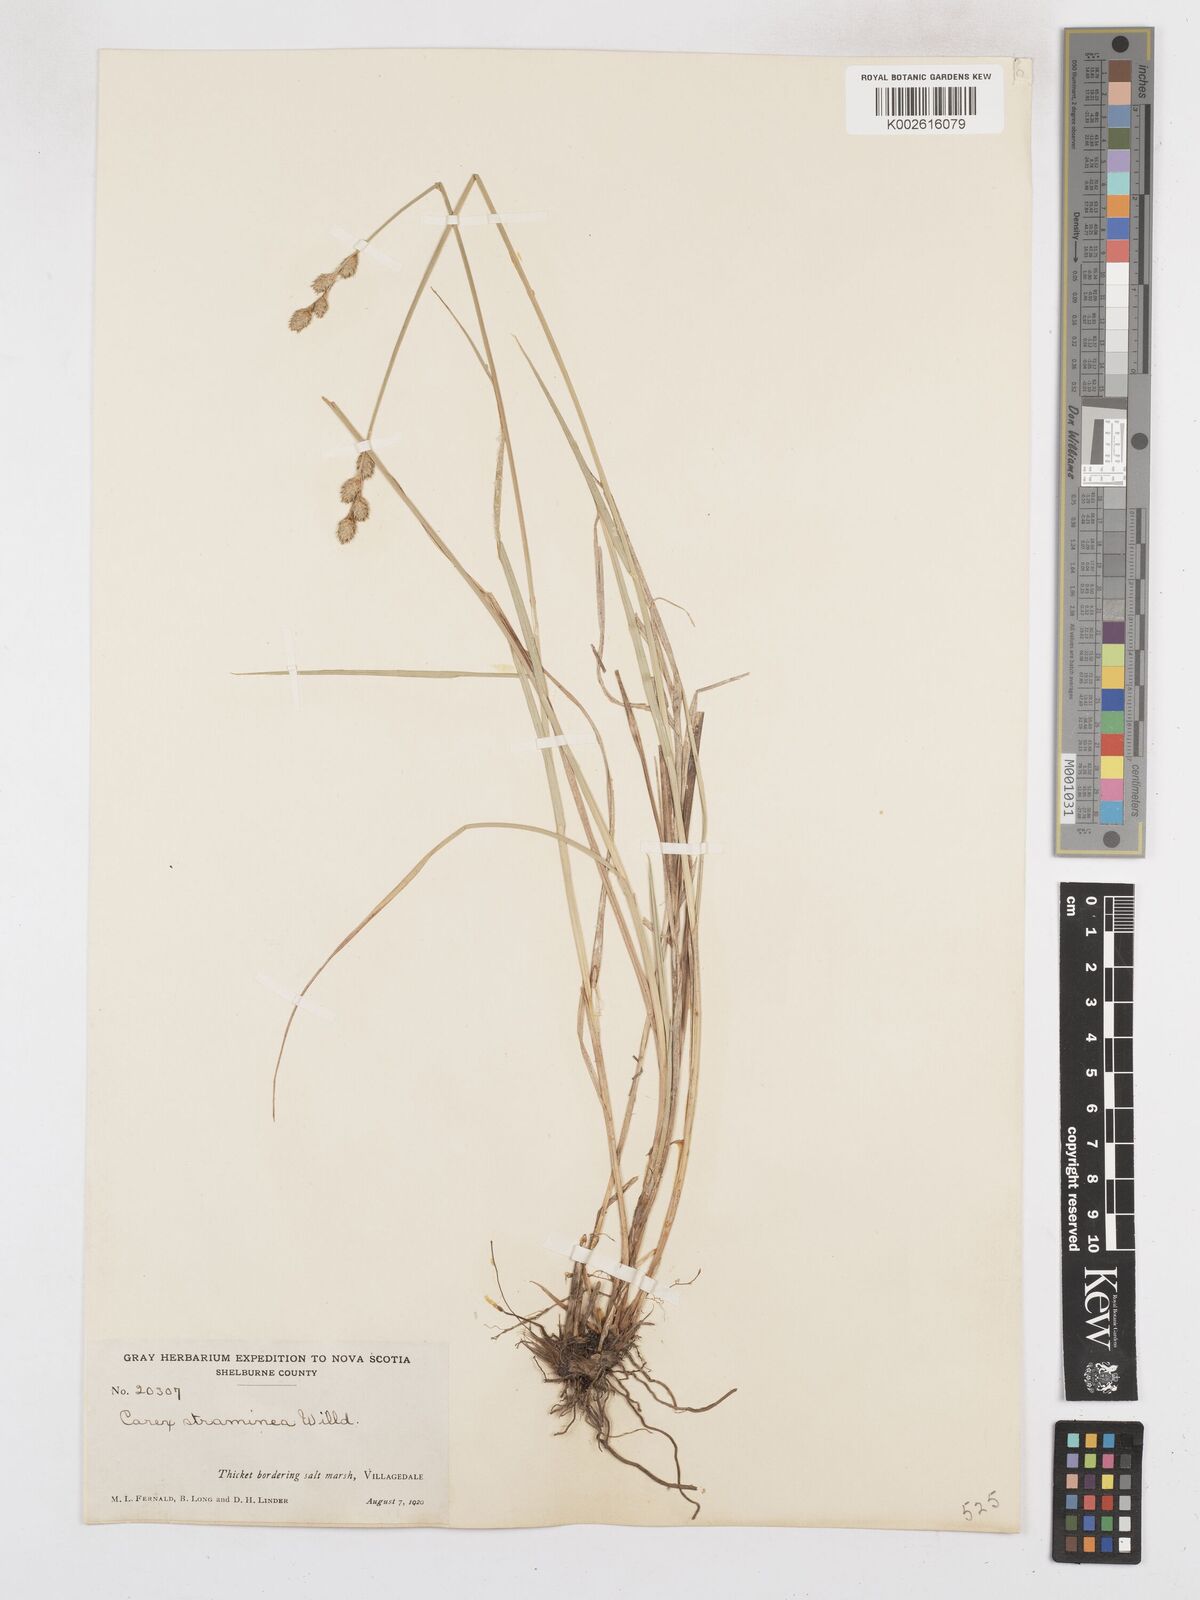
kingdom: Plantae
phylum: Tracheophyta
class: Liliopsida
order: Poales
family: Cyperaceae
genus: Carex
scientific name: Carex brevior
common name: Brevior sedge
